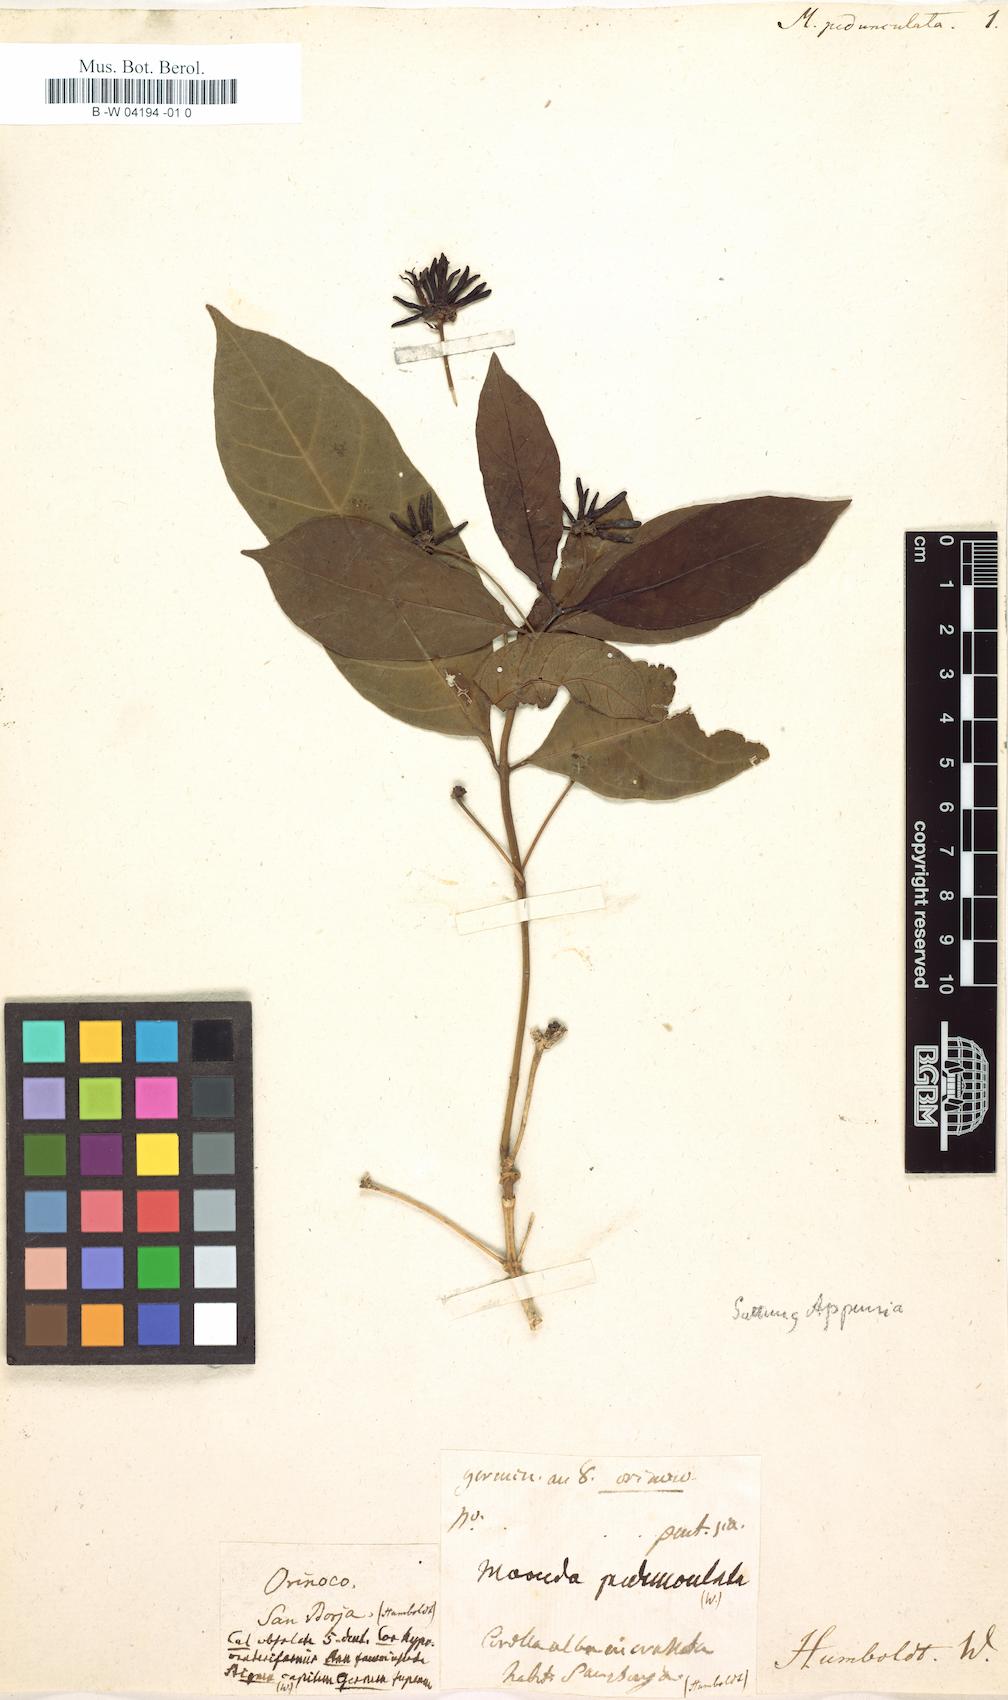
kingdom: Plantae
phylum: Tracheophyta
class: Magnoliopsida
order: Gentianales
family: Rubiaceae
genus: Morinda
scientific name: Morinda pedunculata
